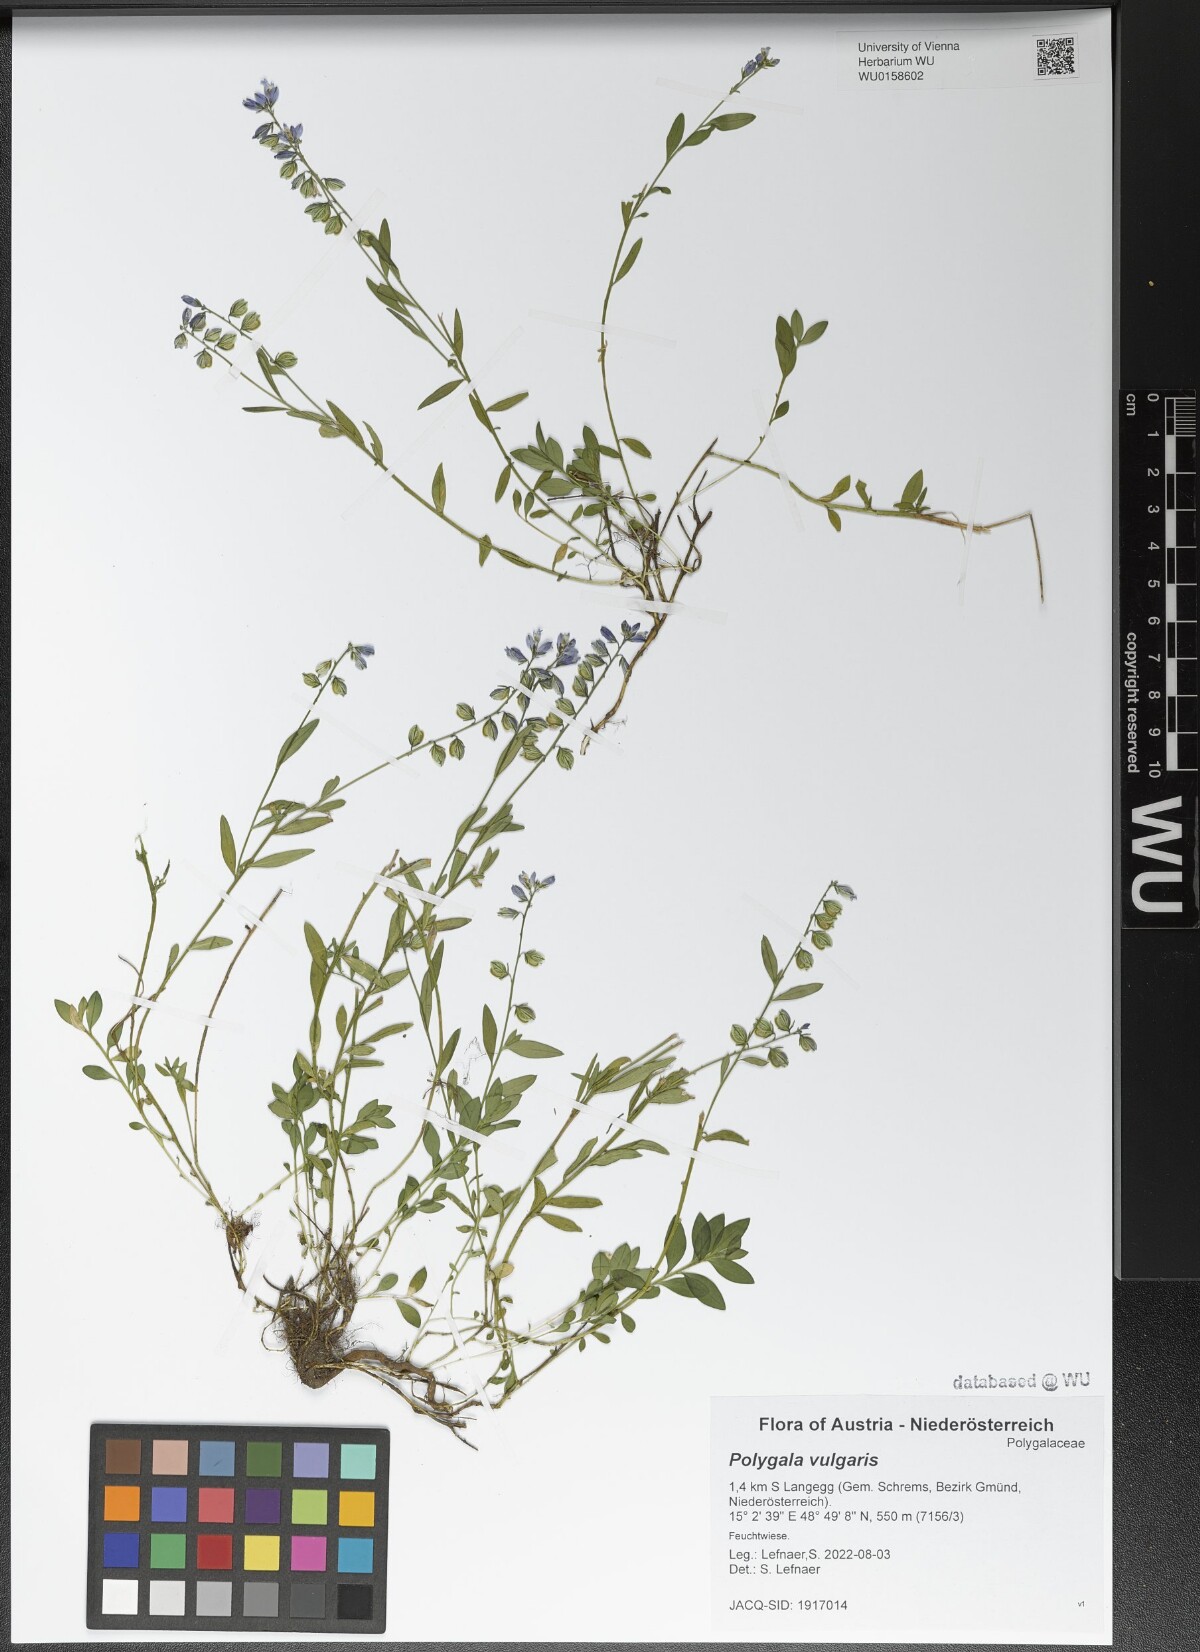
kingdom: Plantae
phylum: Tracheophyta
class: Magnoliopsida
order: Fabales
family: Polygalaceae
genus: Polygala
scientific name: Polygala vulgaris
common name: Common milkwort
